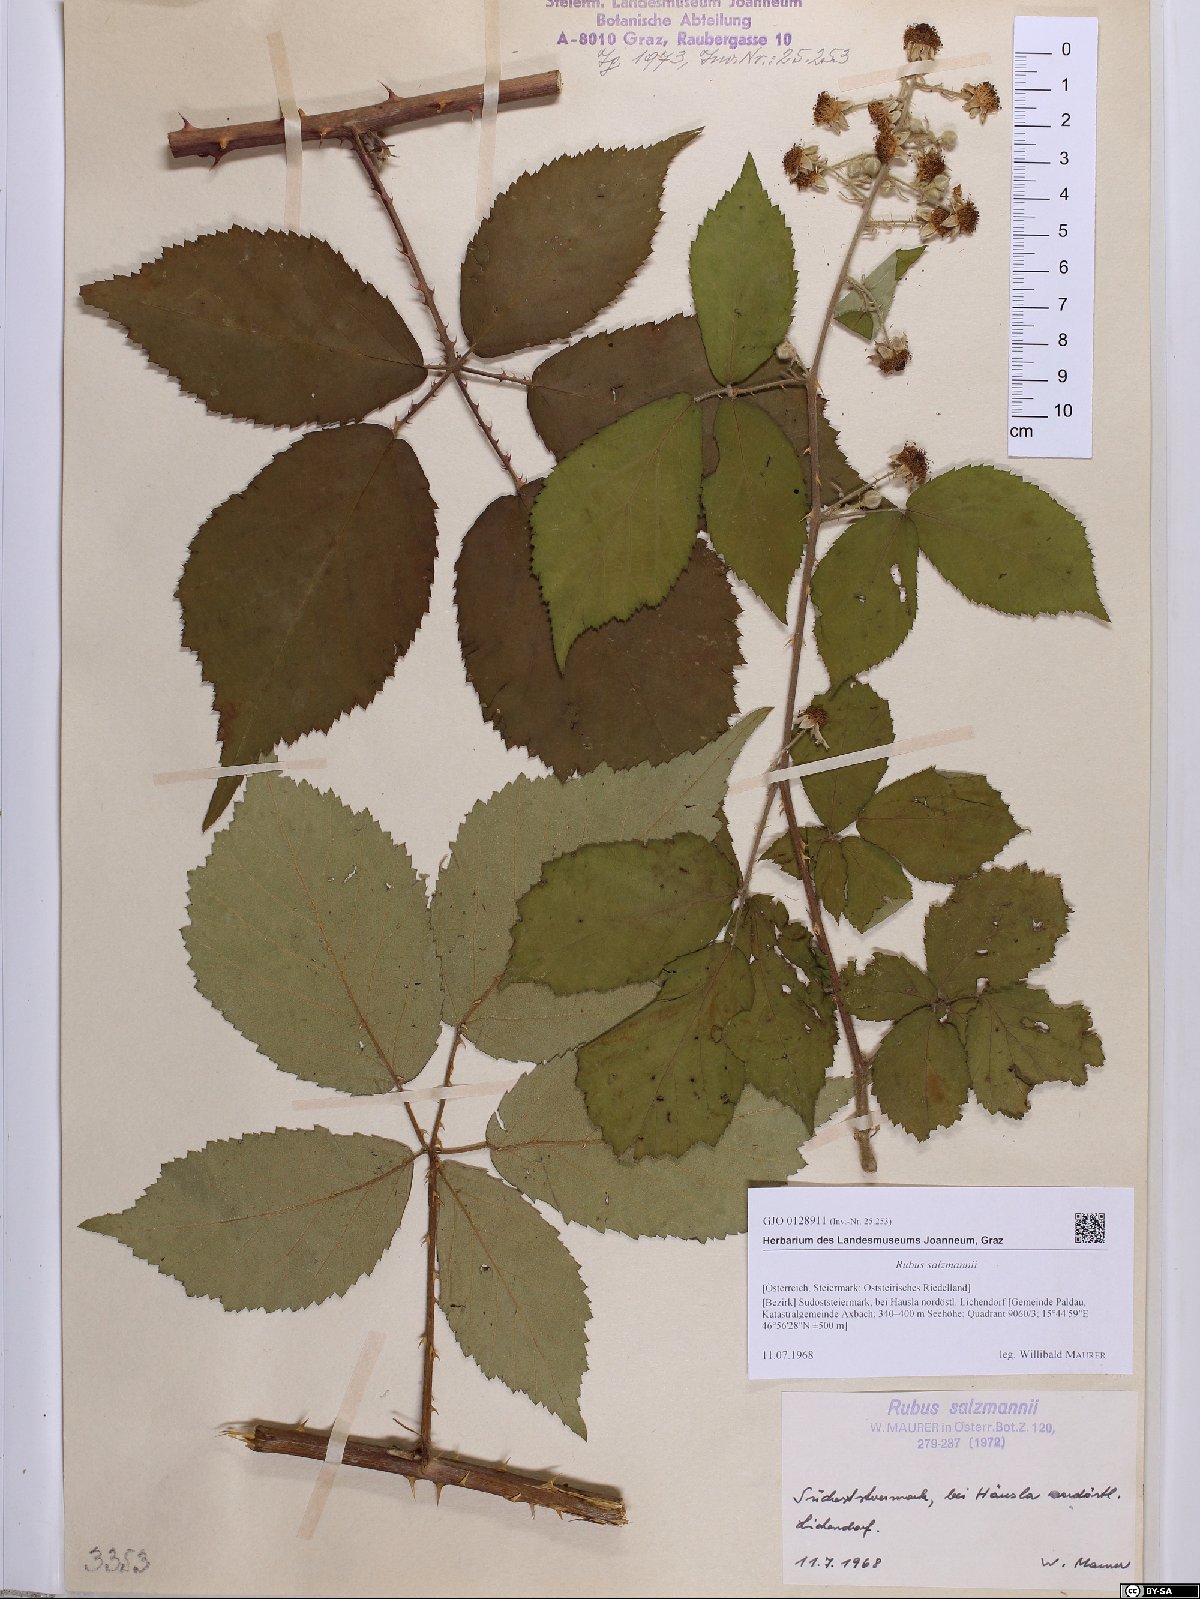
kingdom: Plantae
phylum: Tracheophyta
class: Magnoliopsida
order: Rosales
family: Rosaceae
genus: Rubus
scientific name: Rubus salzmannii
